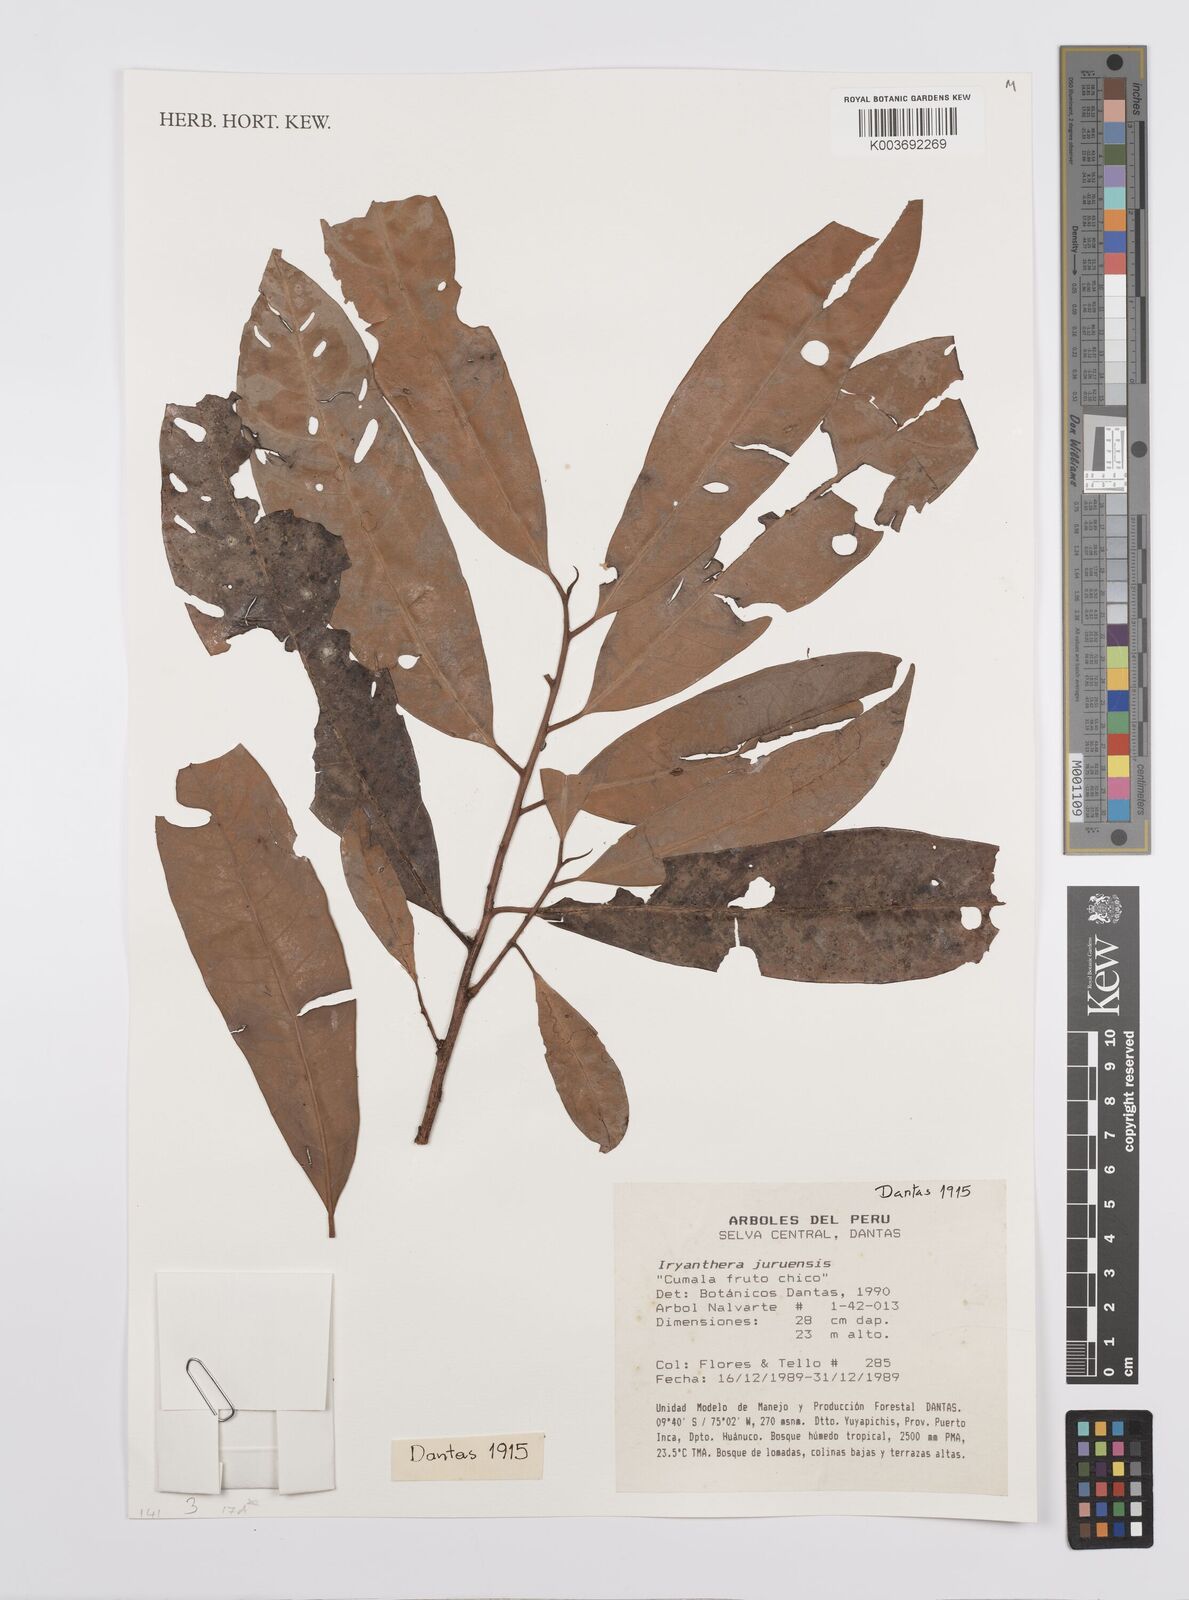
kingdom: Plantae
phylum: Tracheophyta
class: Magnoliopsida
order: Magnoliales
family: Myristicaceae
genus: Iryanthera
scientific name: Iryanthera juruensis
